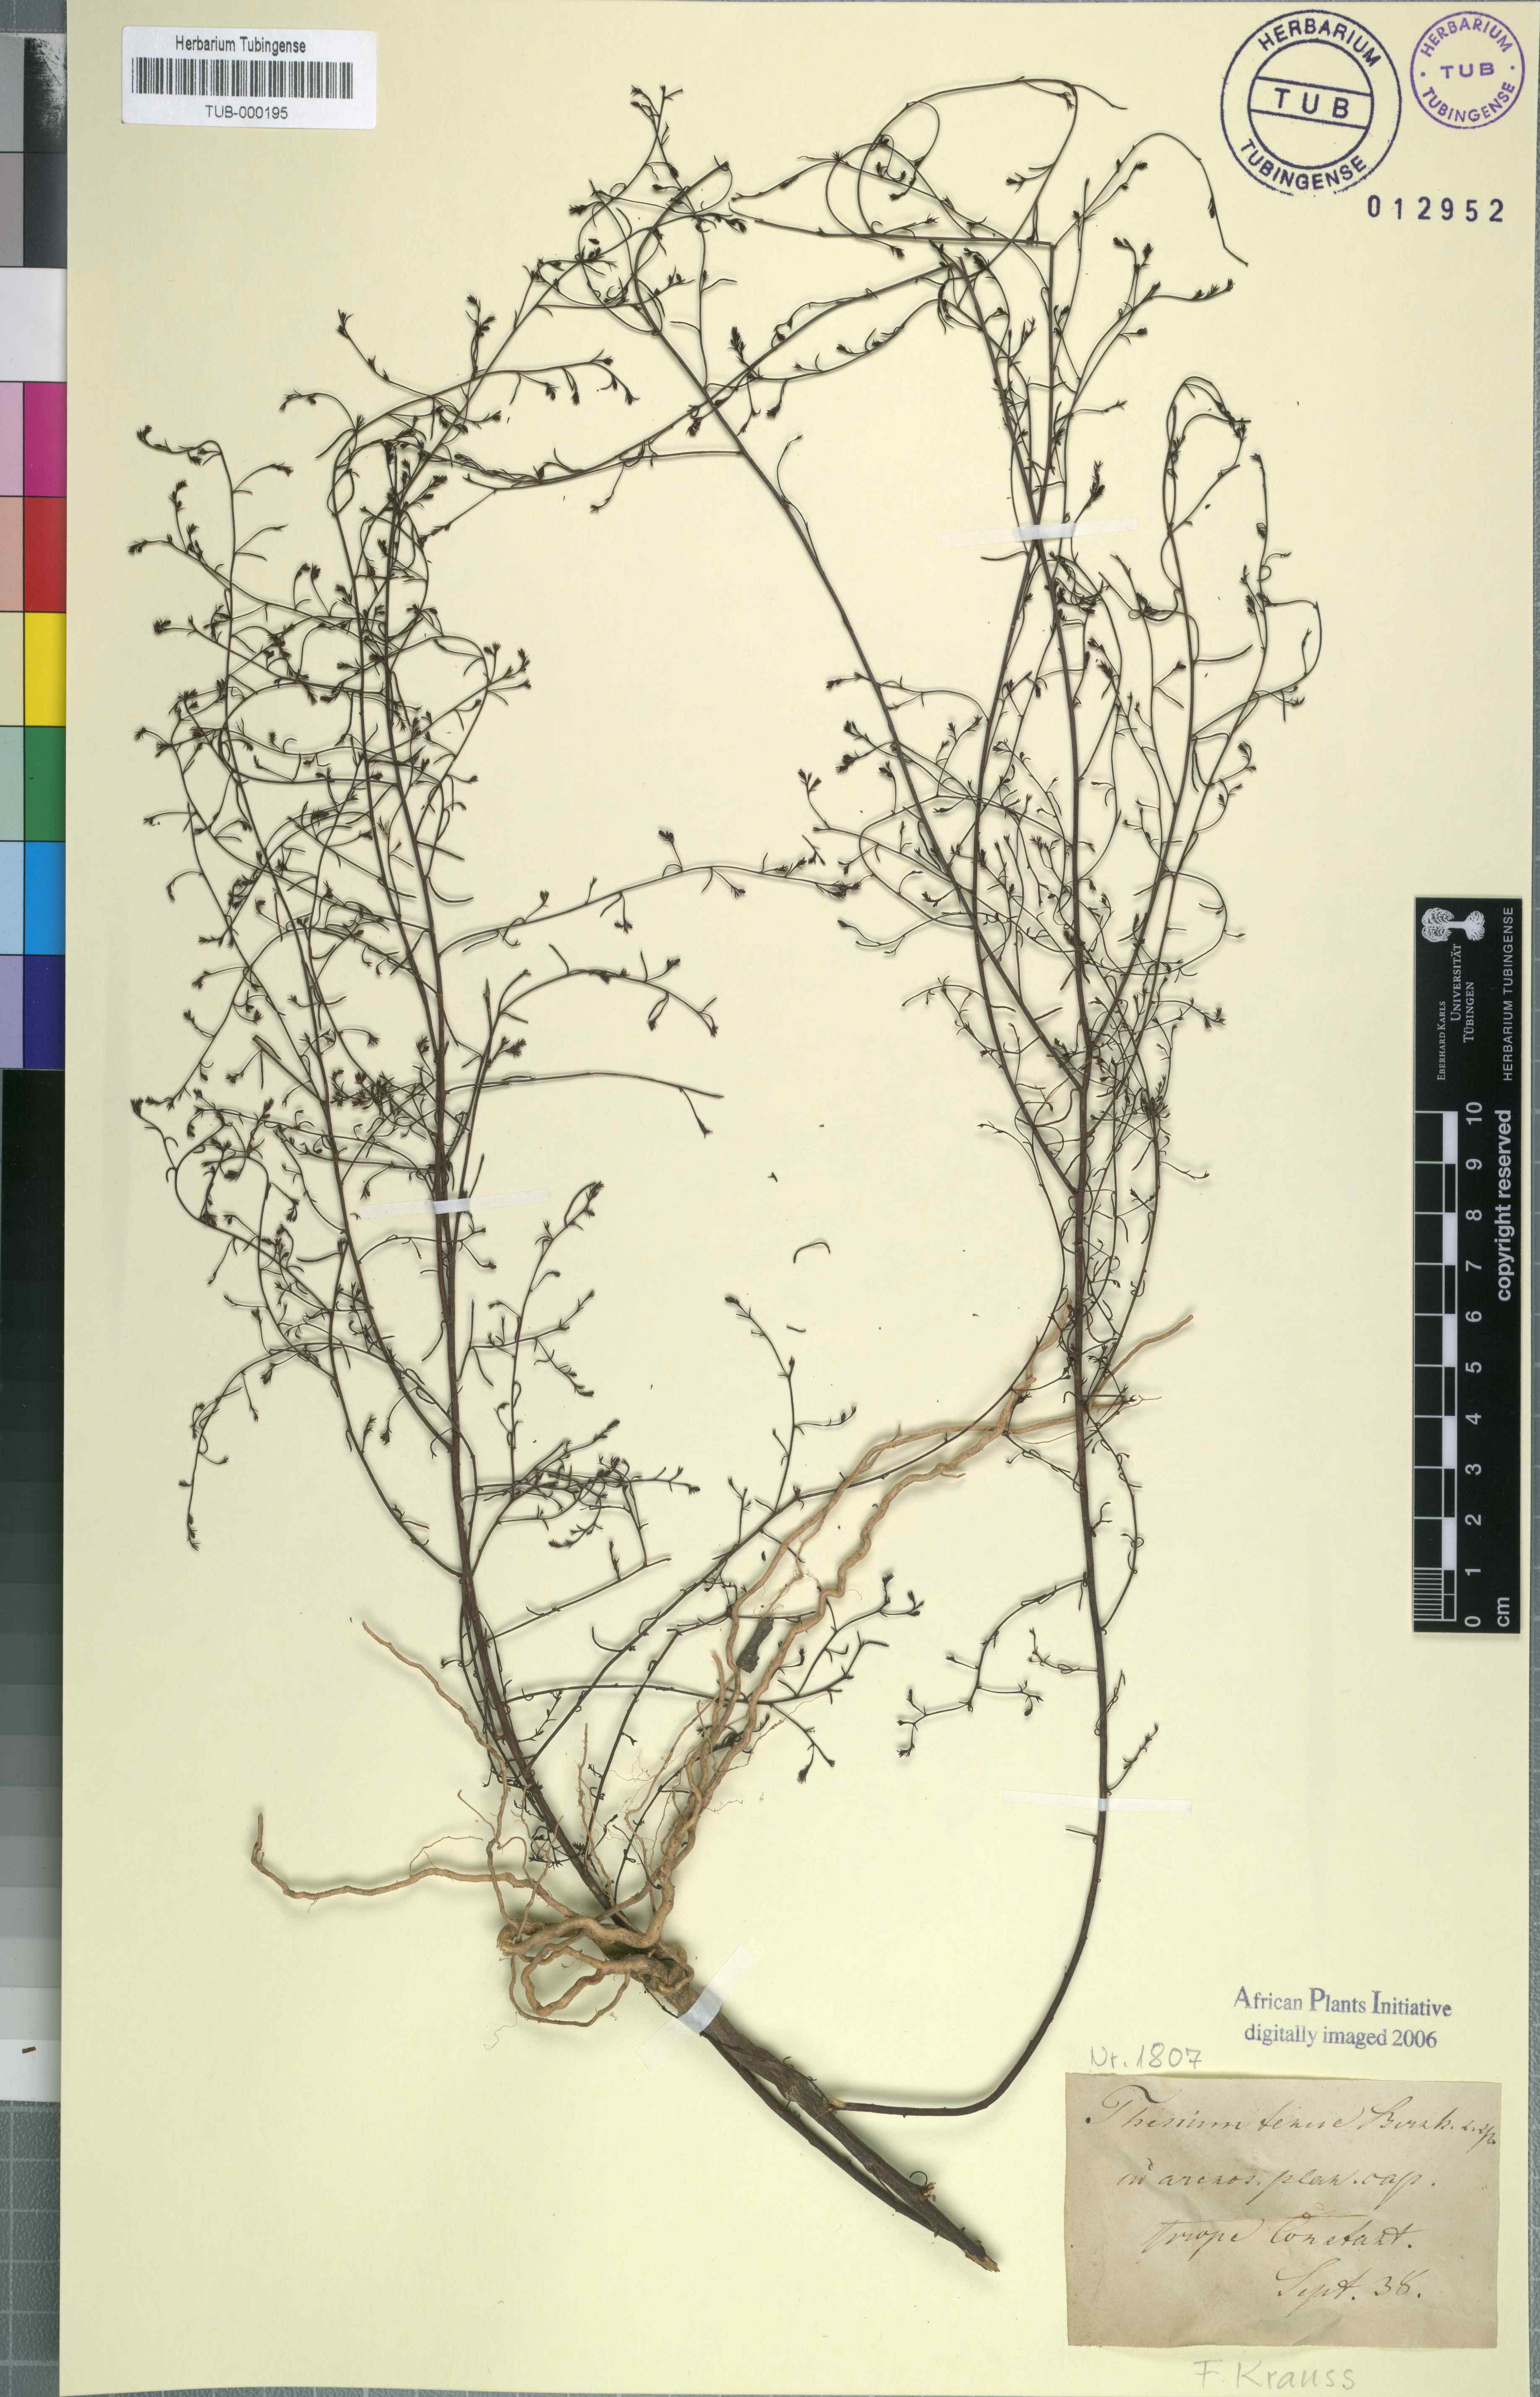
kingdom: Plantae
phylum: Tracheophyta
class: Magnoliopsida
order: Santalales
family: Thesiaceae
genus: Thesium
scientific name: Thesium juncifolium
